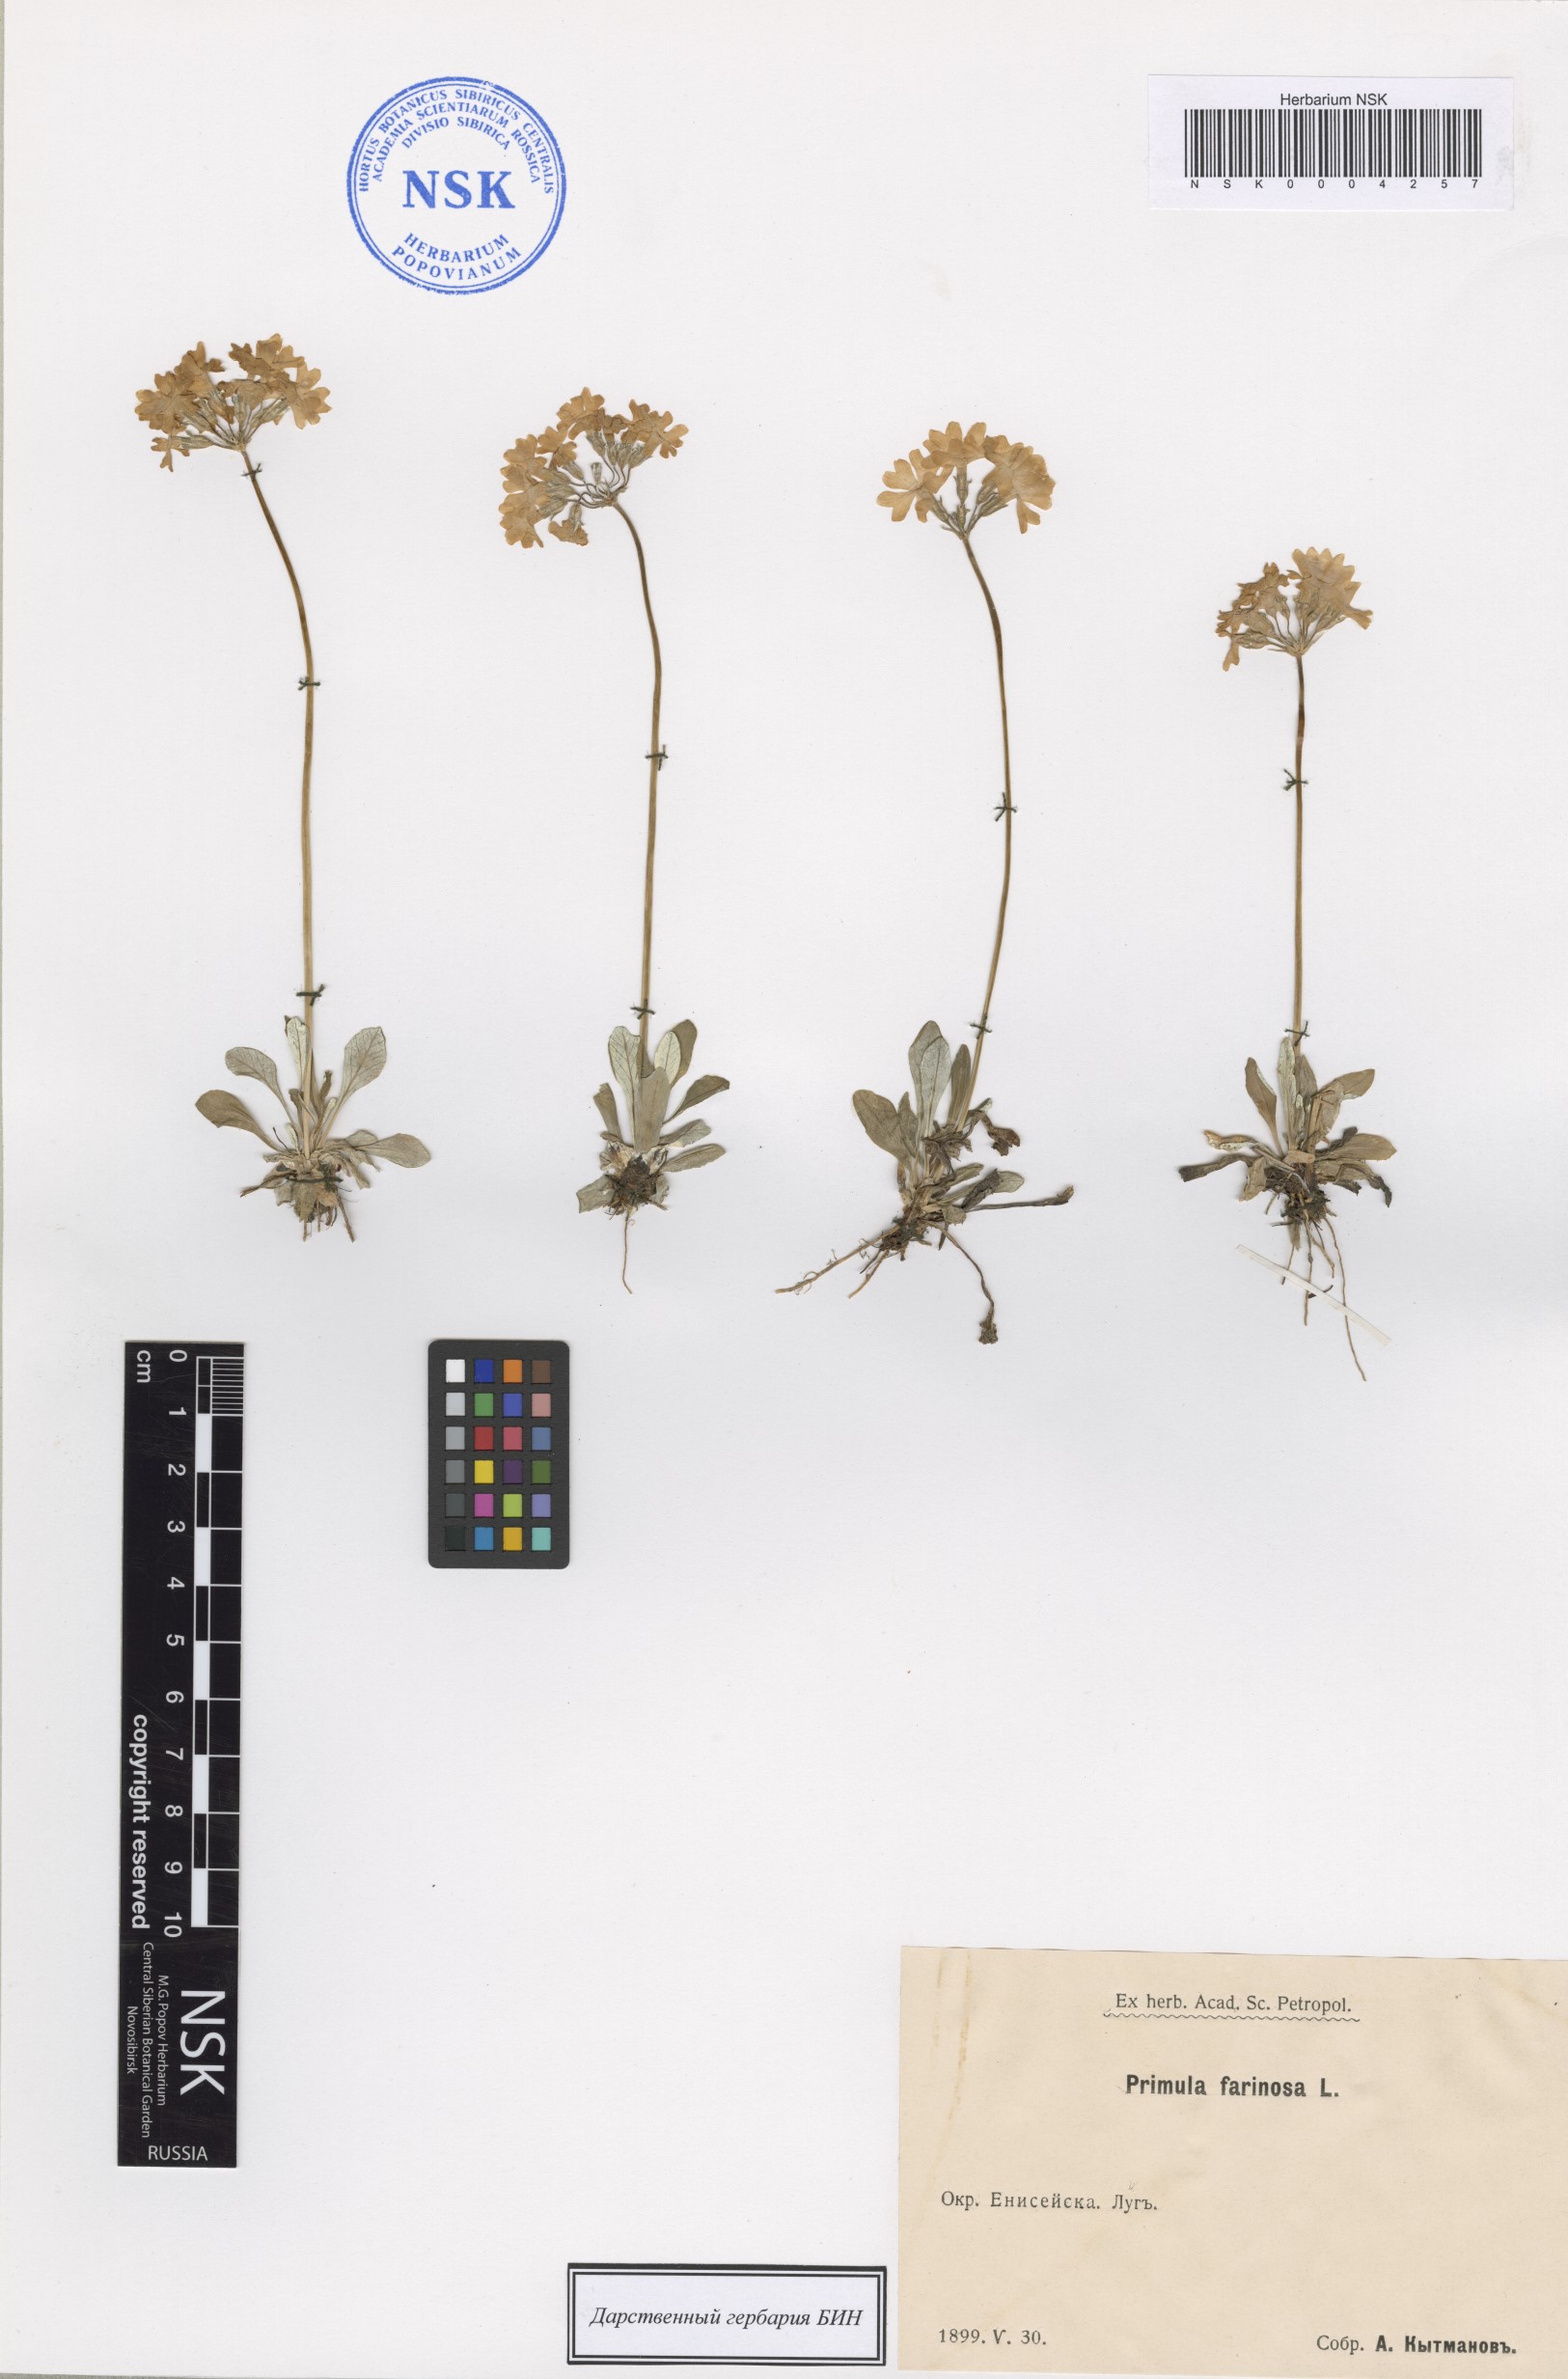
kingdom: Plantae
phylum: Tracheophyta
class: Magnoliopsida
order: Ericales
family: Primulaceae
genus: Primula
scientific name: Primula farinosa
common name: Bird's-eye primrose
